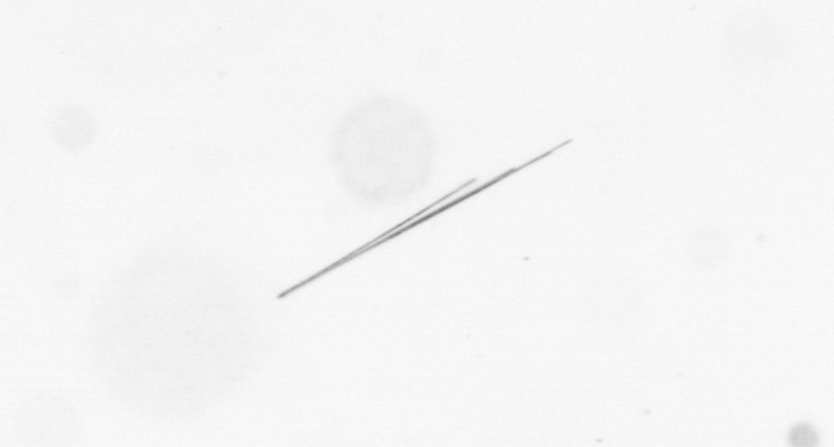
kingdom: Chromista
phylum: Ochrophyta
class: Bacillariophyceae
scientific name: Bacillariophyceae
